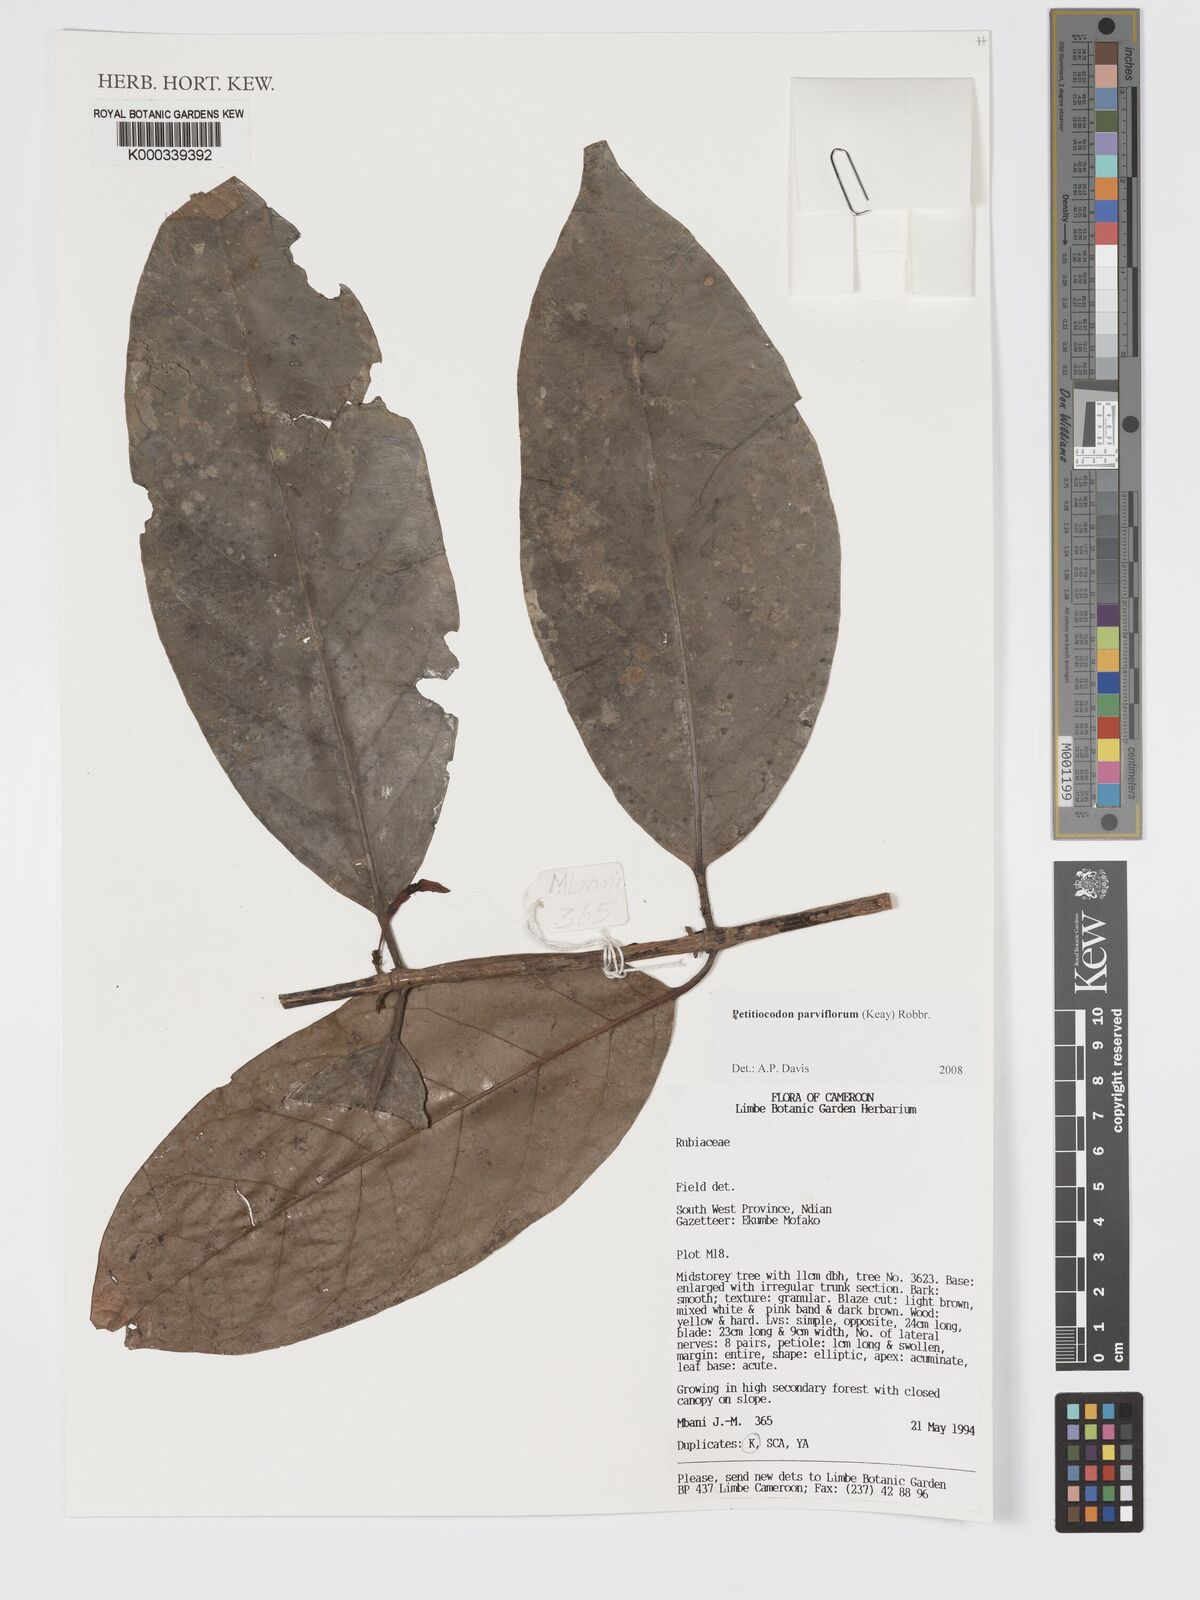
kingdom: Plantae
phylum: Tracheophyta
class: Magnoliopsida
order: Gentianales
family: Rubiaceae
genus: Petitiocodon
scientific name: Petitiocodon parviflorum
